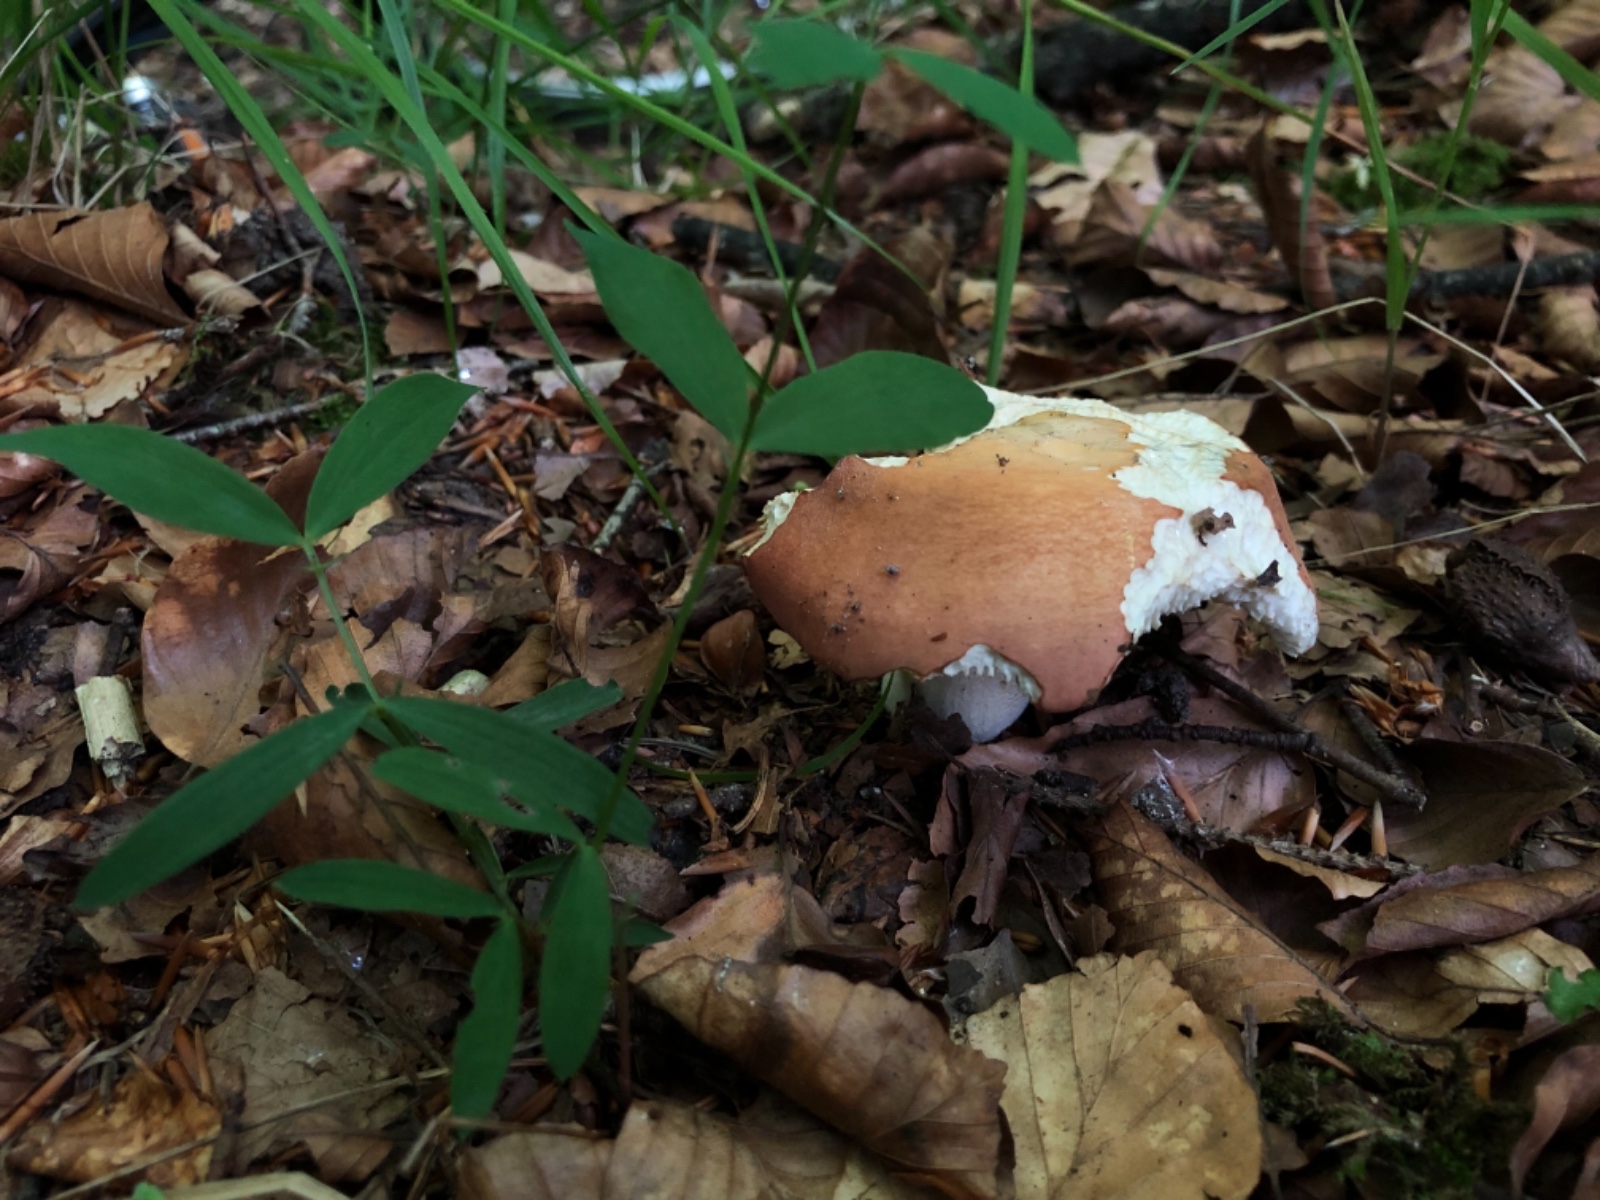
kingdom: Fungi
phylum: Basidiomycota
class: Agaricomycetes
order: Russulales
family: Russulaceae
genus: Russula
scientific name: Russula faginea
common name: bøge-skørhat
